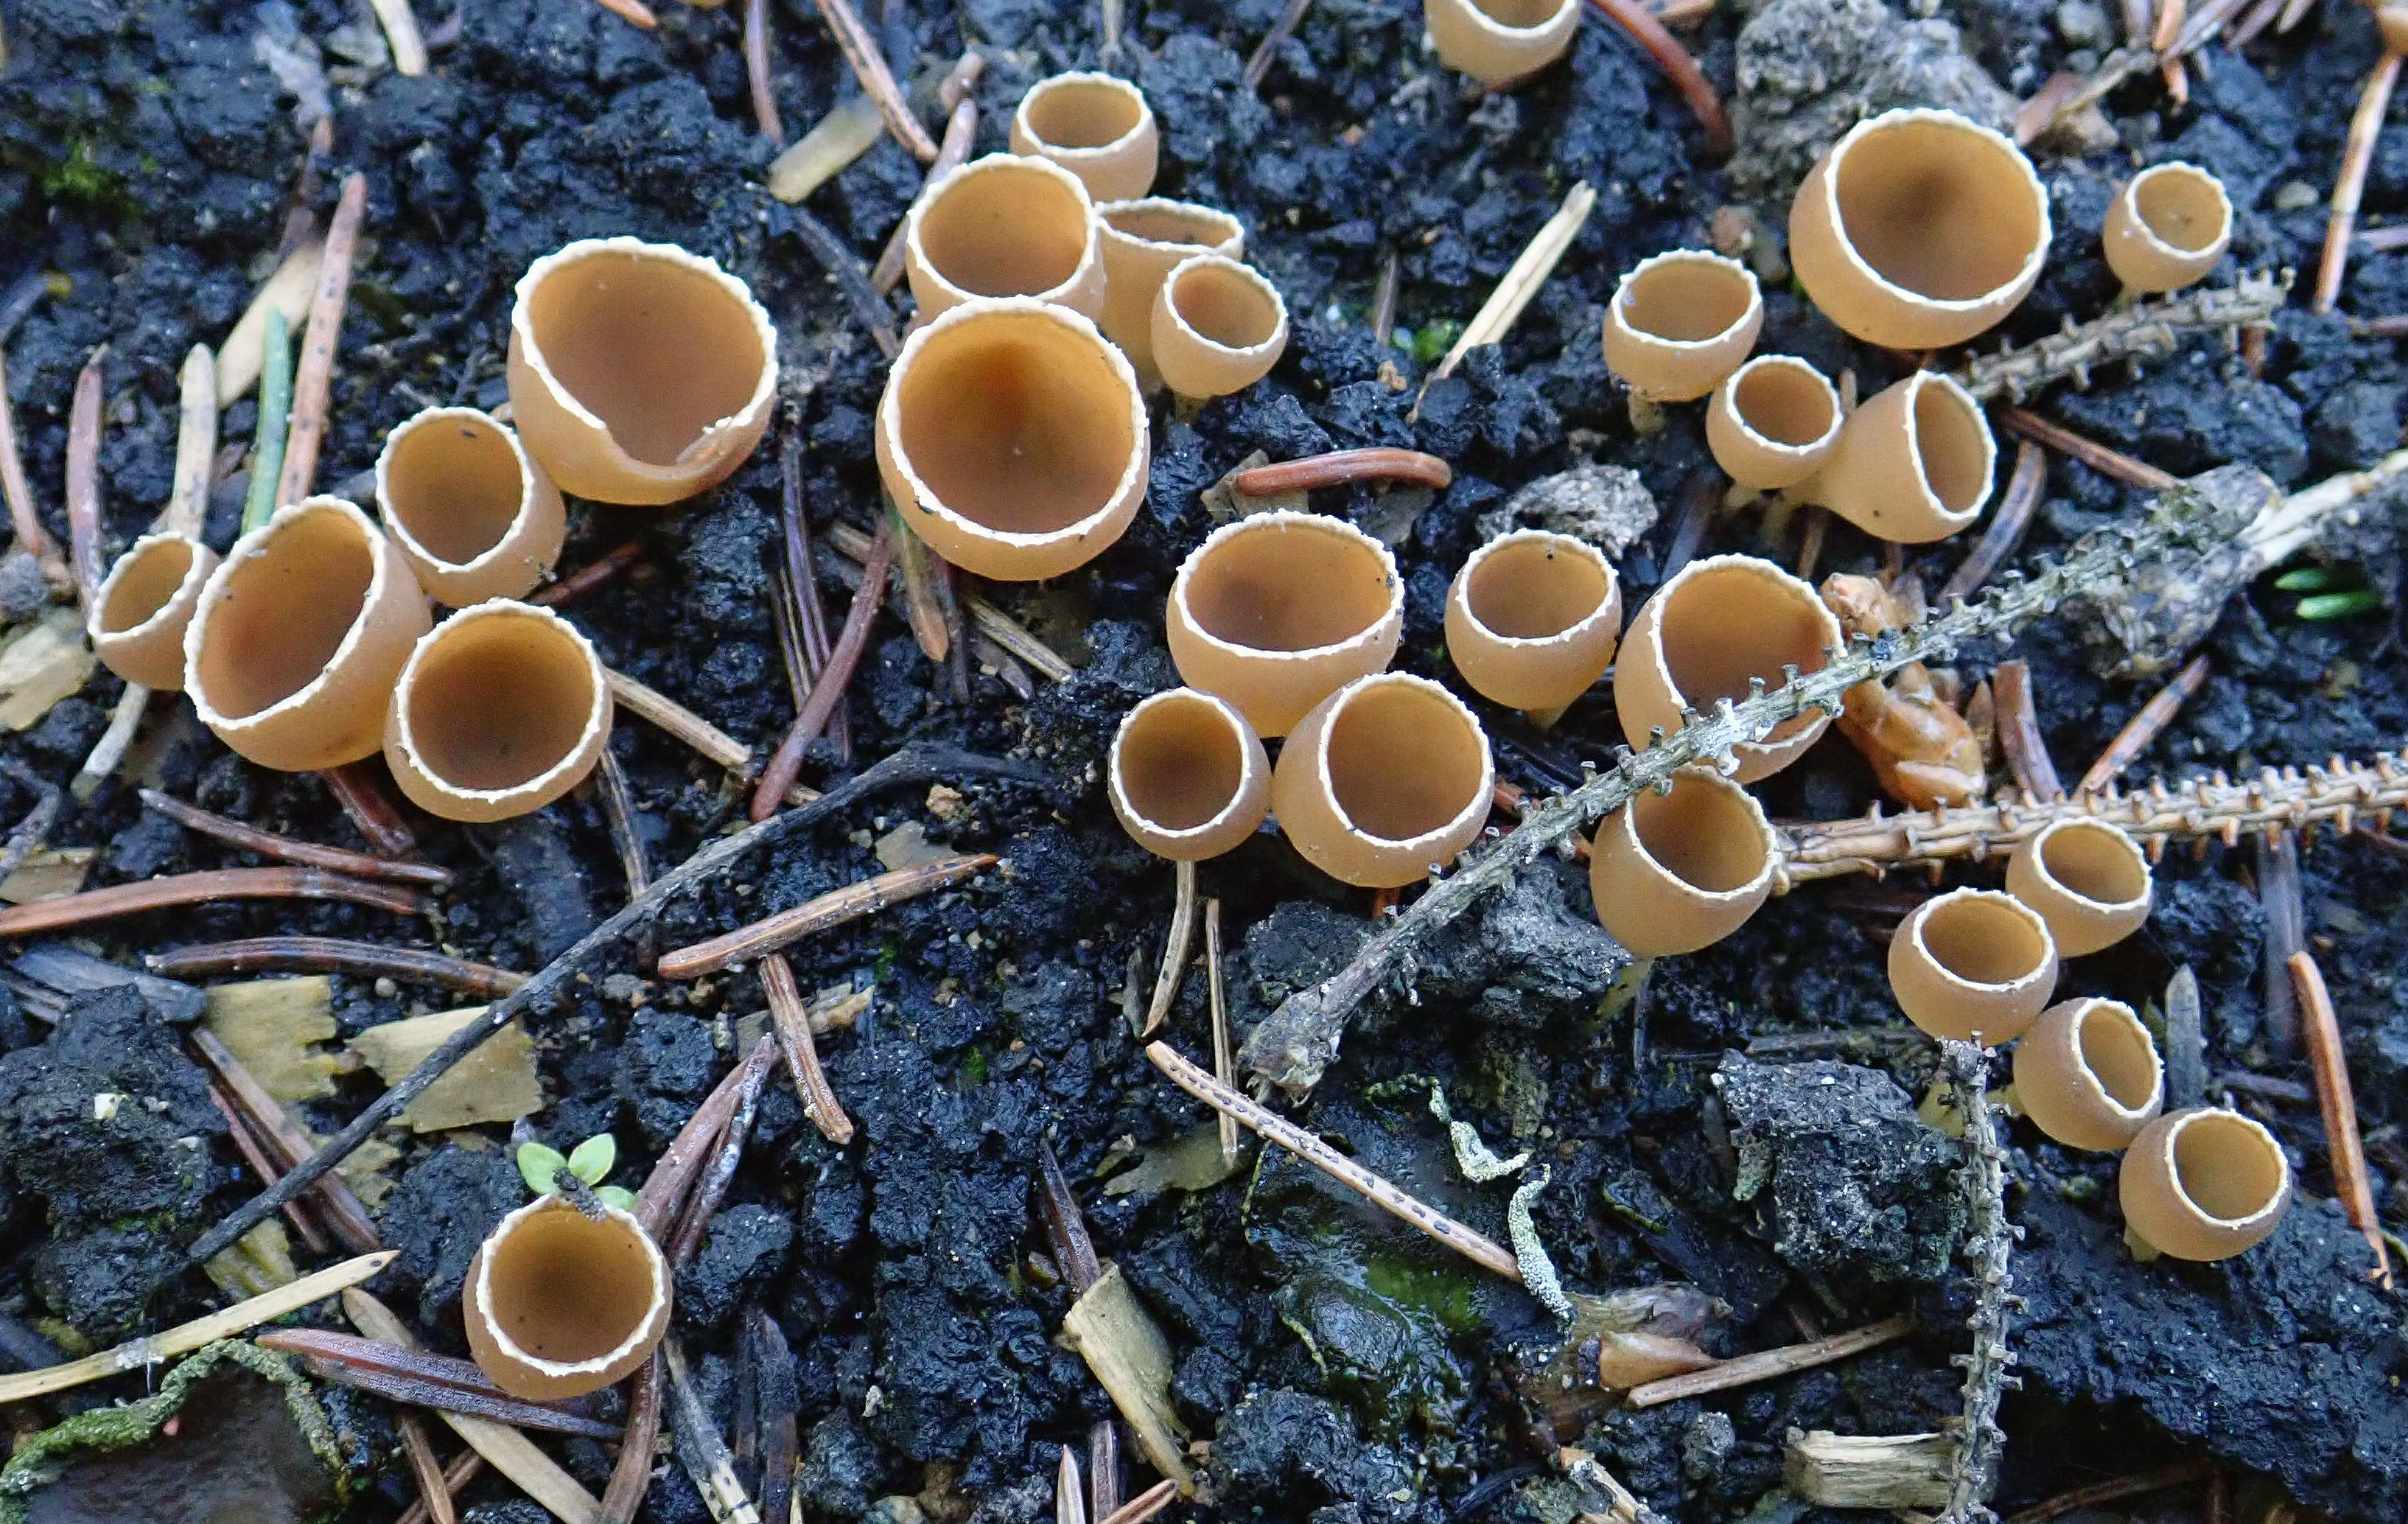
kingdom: Fungi
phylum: Ascomycota
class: Pezizomycetes
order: Pezizales
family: Pyronemataceae
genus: Geopyxis
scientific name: Geopyxis carbonaria
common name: Stalked bonfire cup
